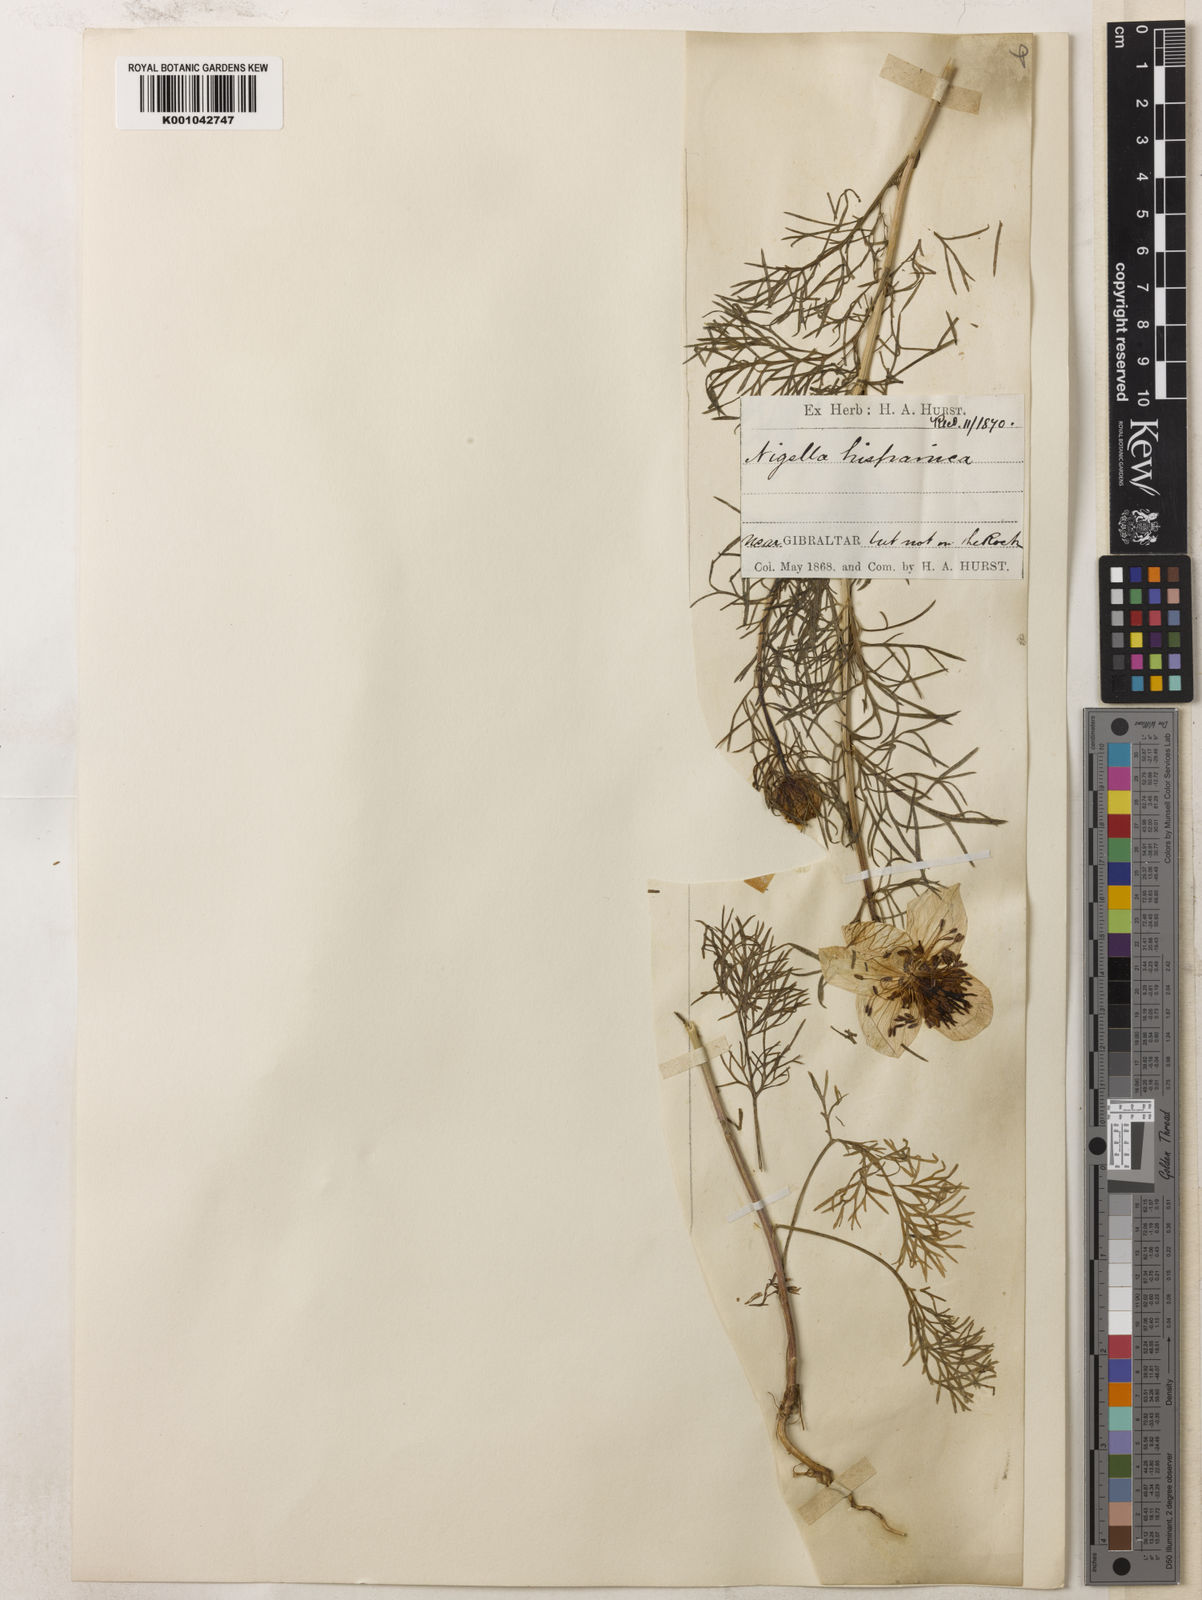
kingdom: Plantae
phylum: Tracheophyta
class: Magnoliopsida
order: Ranunculales
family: Ranunculaceae
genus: Nigella
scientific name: Nigella hispanica
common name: Fennel-flower
